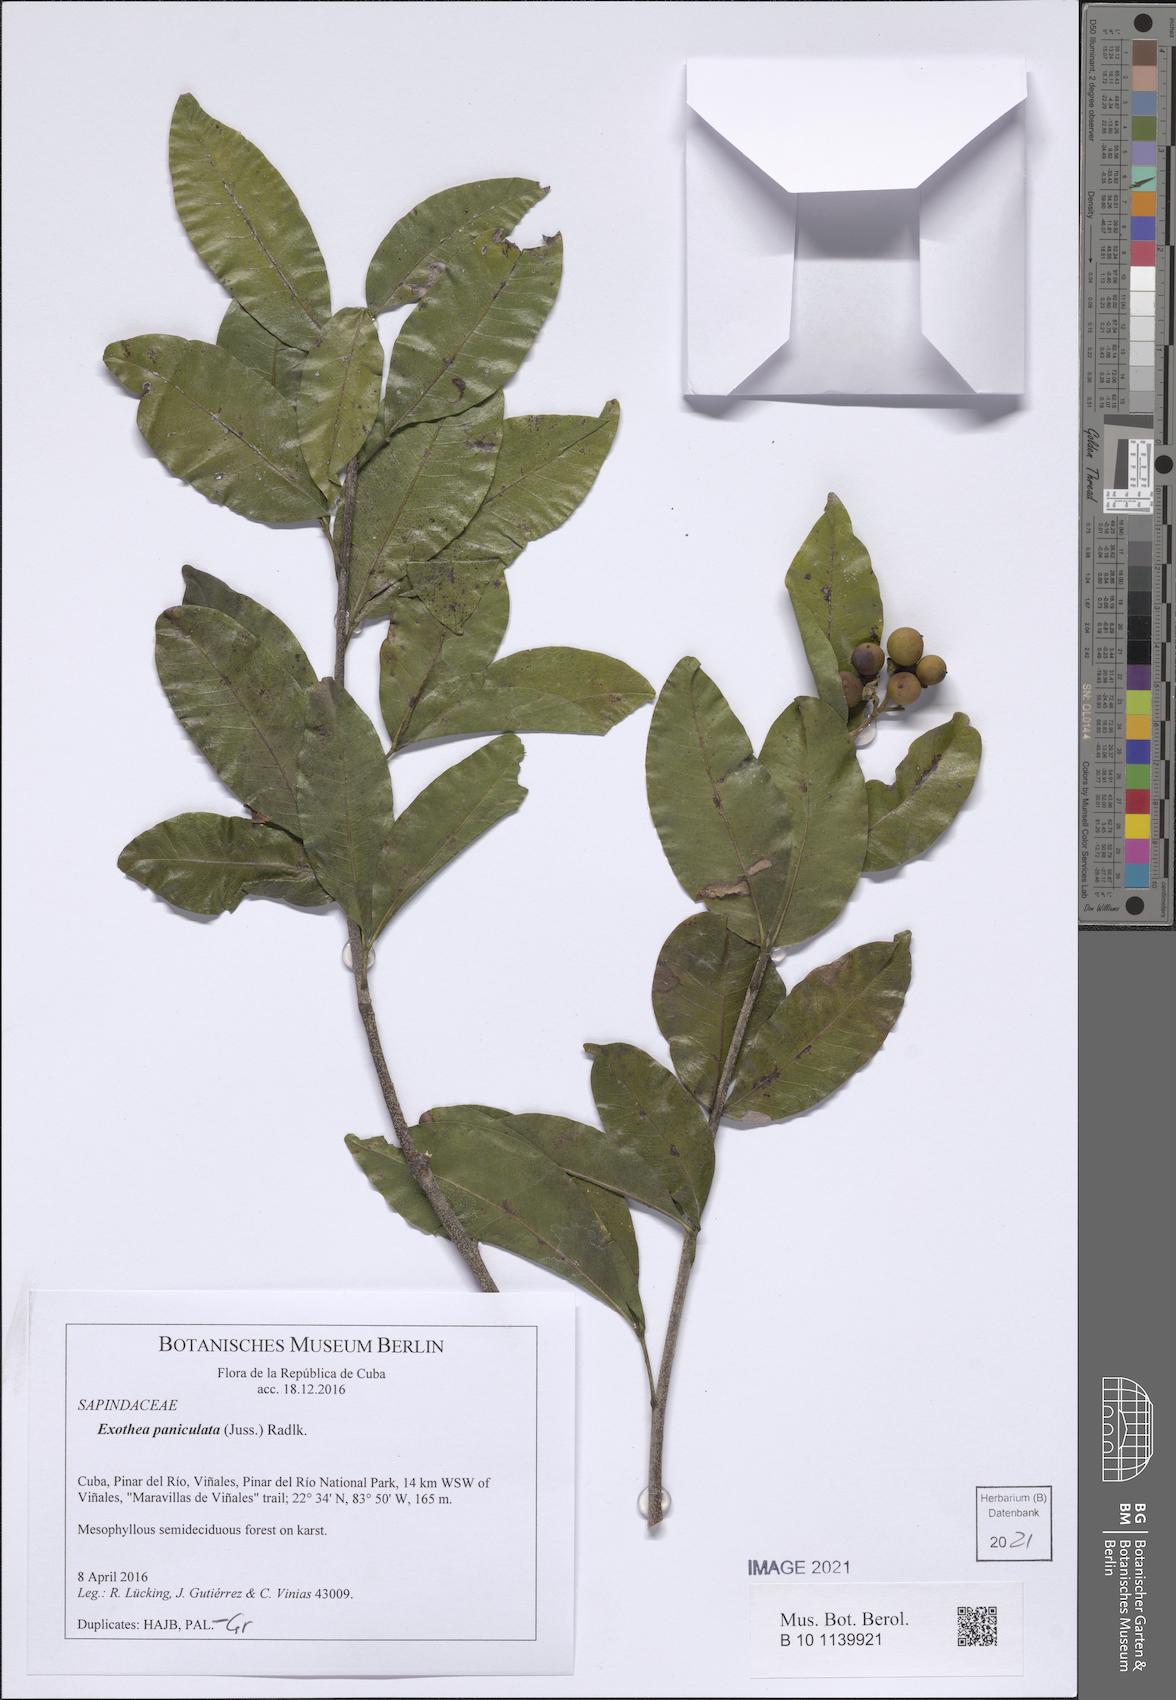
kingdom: Plantae
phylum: Tracheophyta
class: Magnoliopsida
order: Sapindales
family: Sapindaceae
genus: Exothea
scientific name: Exothea paniculata
